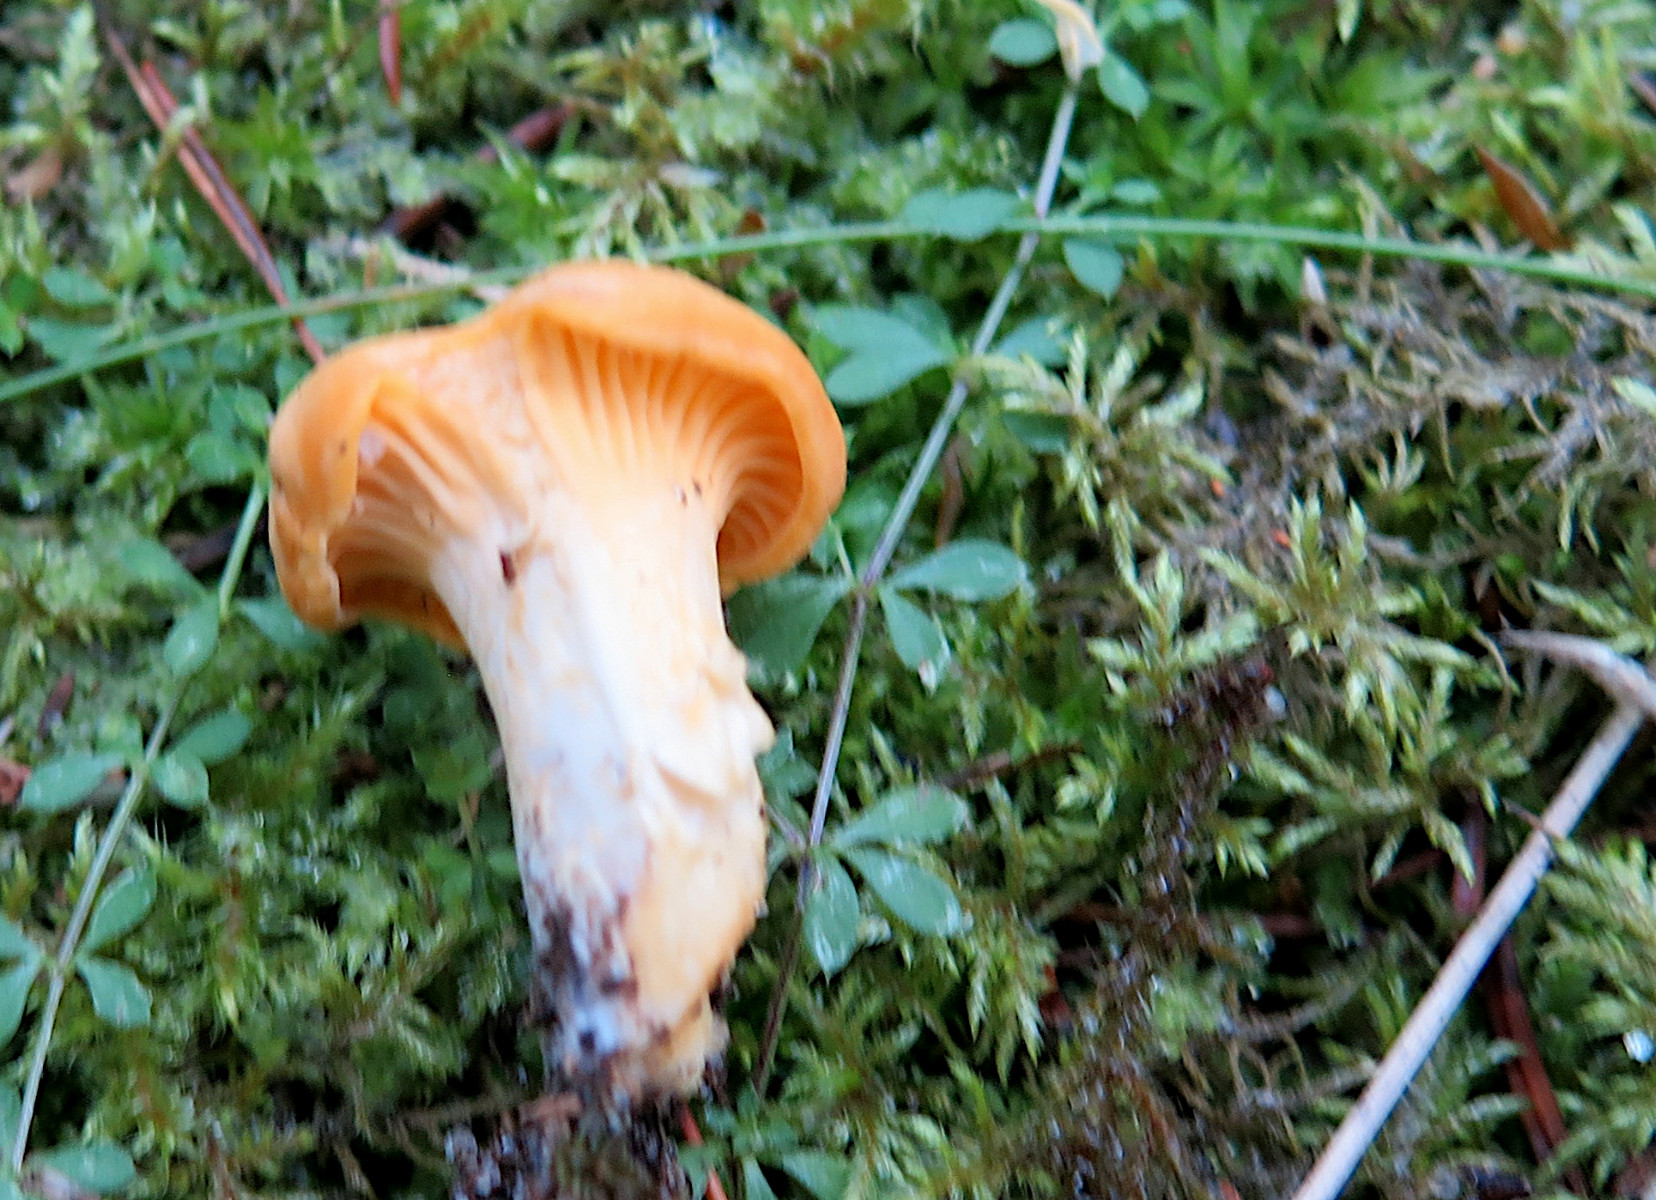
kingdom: Fungi
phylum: Basidiomycota
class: Agaricomycetes
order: Cantharellales
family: Hydnaceae
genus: Cantharellus
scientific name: Cantharellus cibarius
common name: almindelig kantarel
